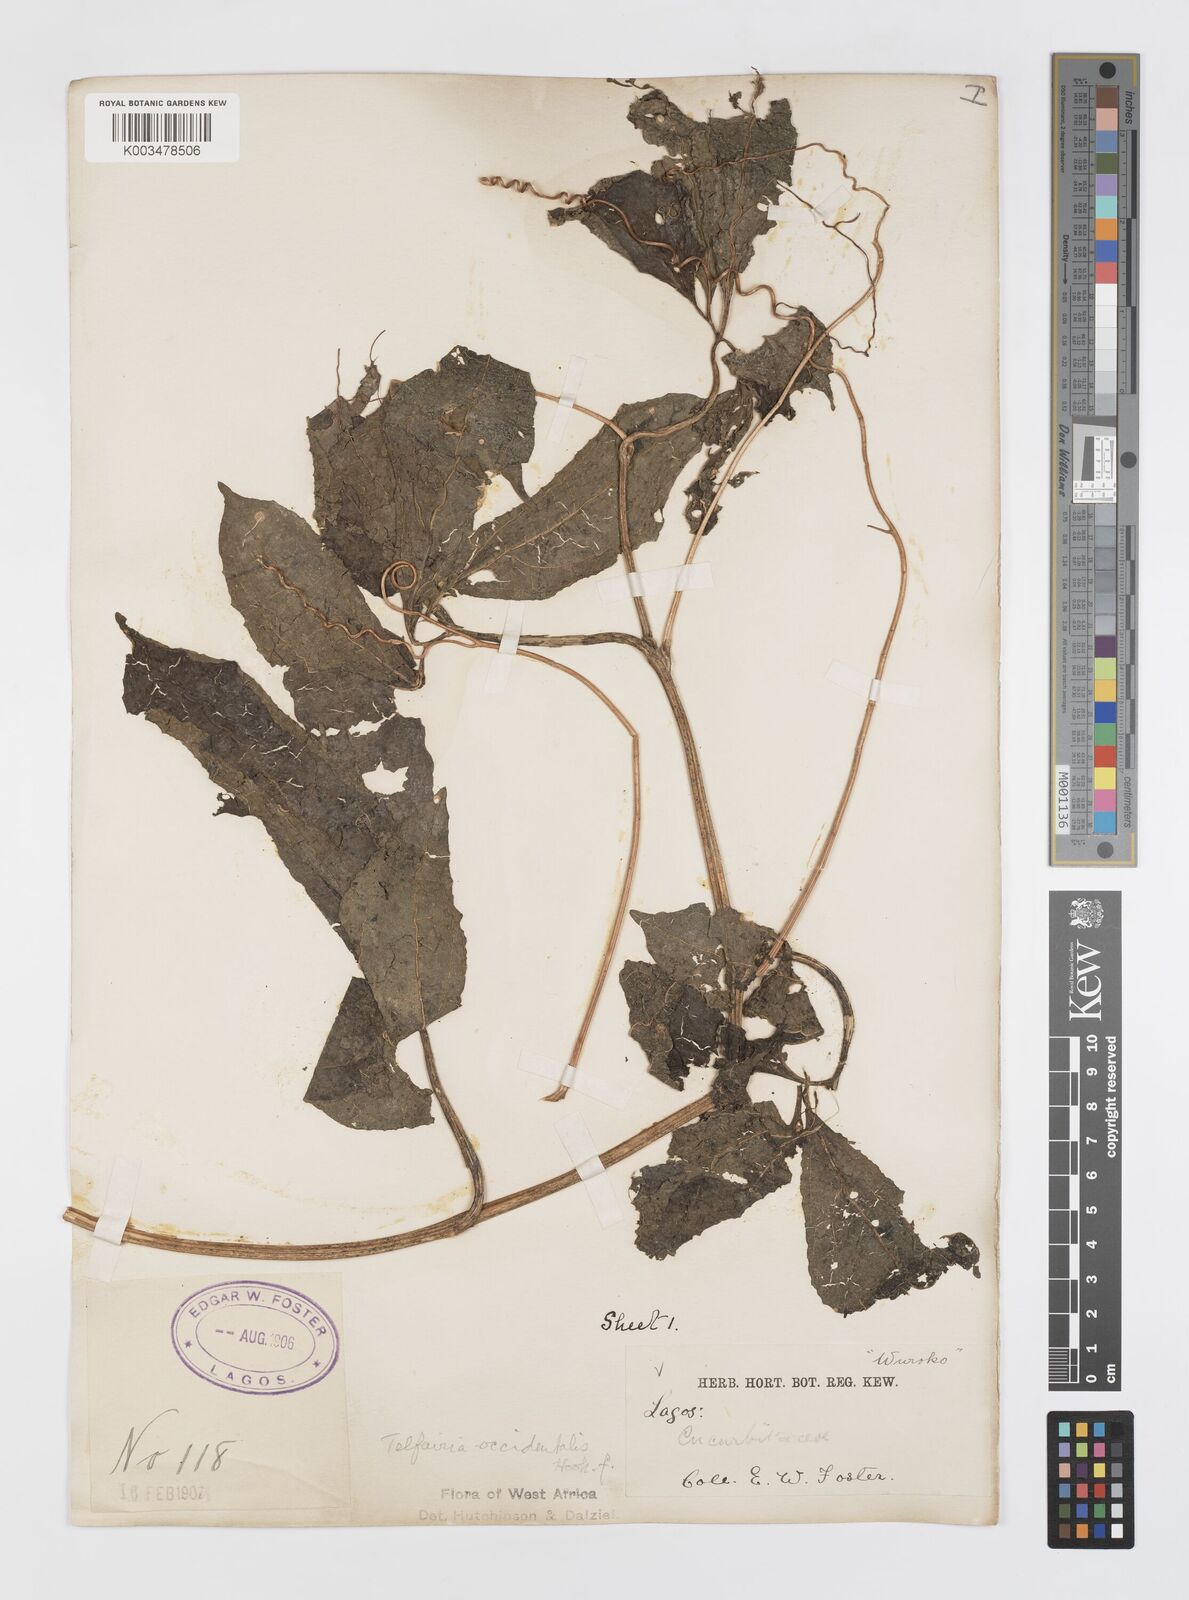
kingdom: Plantae
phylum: Tracheophyta
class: Magnoliopsida
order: Cucurbitales
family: Cucurbitaceae
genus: Telfairia
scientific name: Telfairia occidentalis
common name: Oysternut
